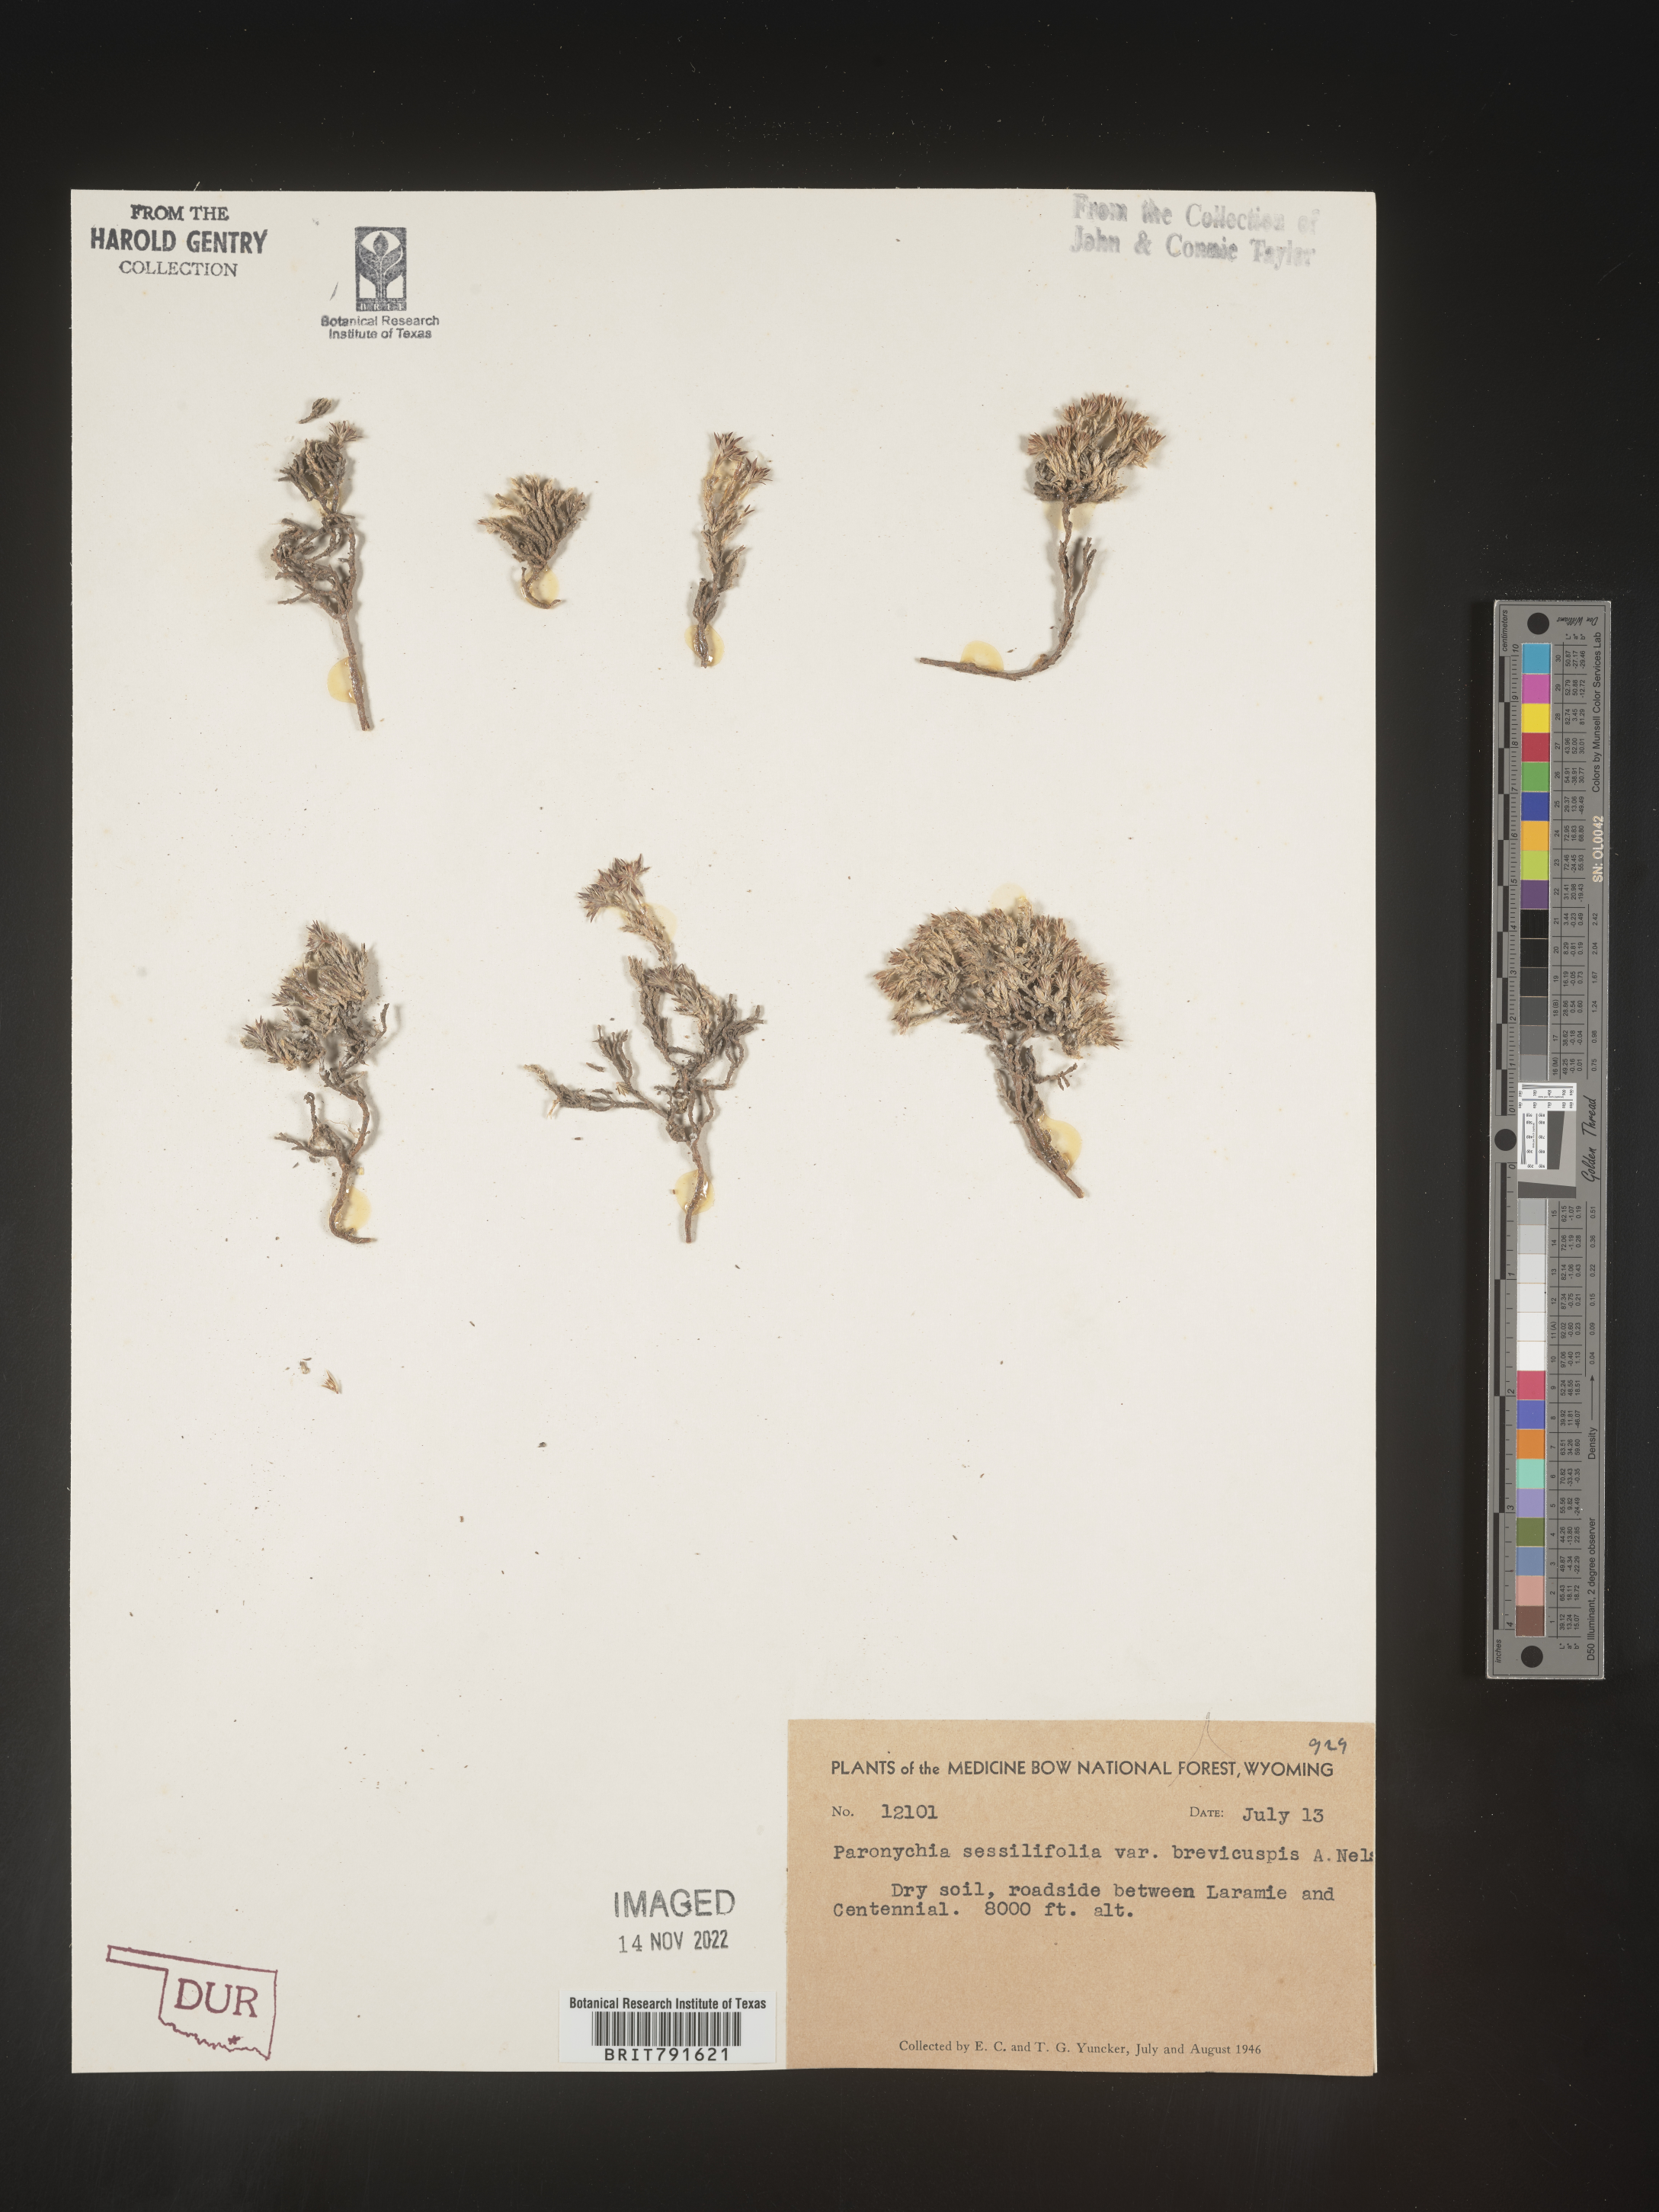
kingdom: Plantae
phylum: Tracheophyta
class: Magnoliopsida
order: Caryophyllales
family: Caryophyllaceae
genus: Paronychia
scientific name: Paronychia sessiliflora
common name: Creeping nailwort
